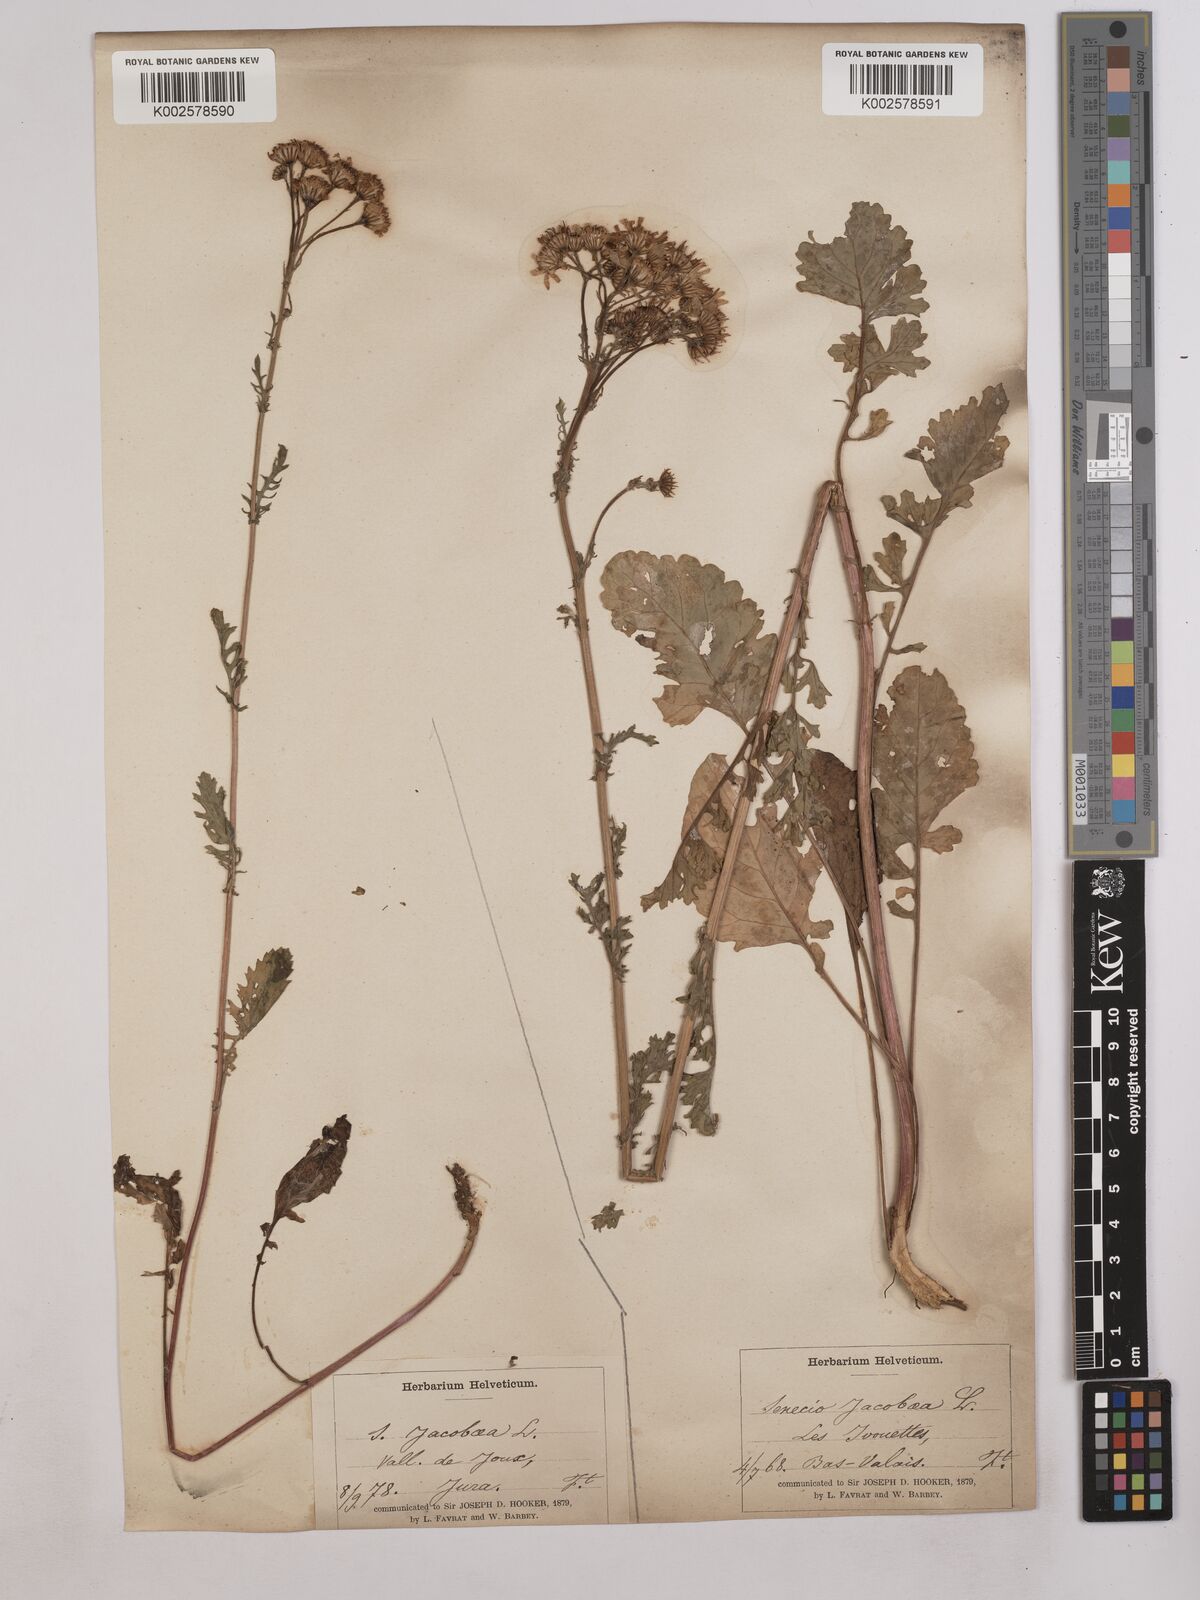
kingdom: Plantae
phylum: Tracheophyta
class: Magnoliopsida
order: Asterales
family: Asteraceae
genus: Jacobaea
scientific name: Jacobaea vulgaris
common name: Stinking willie
